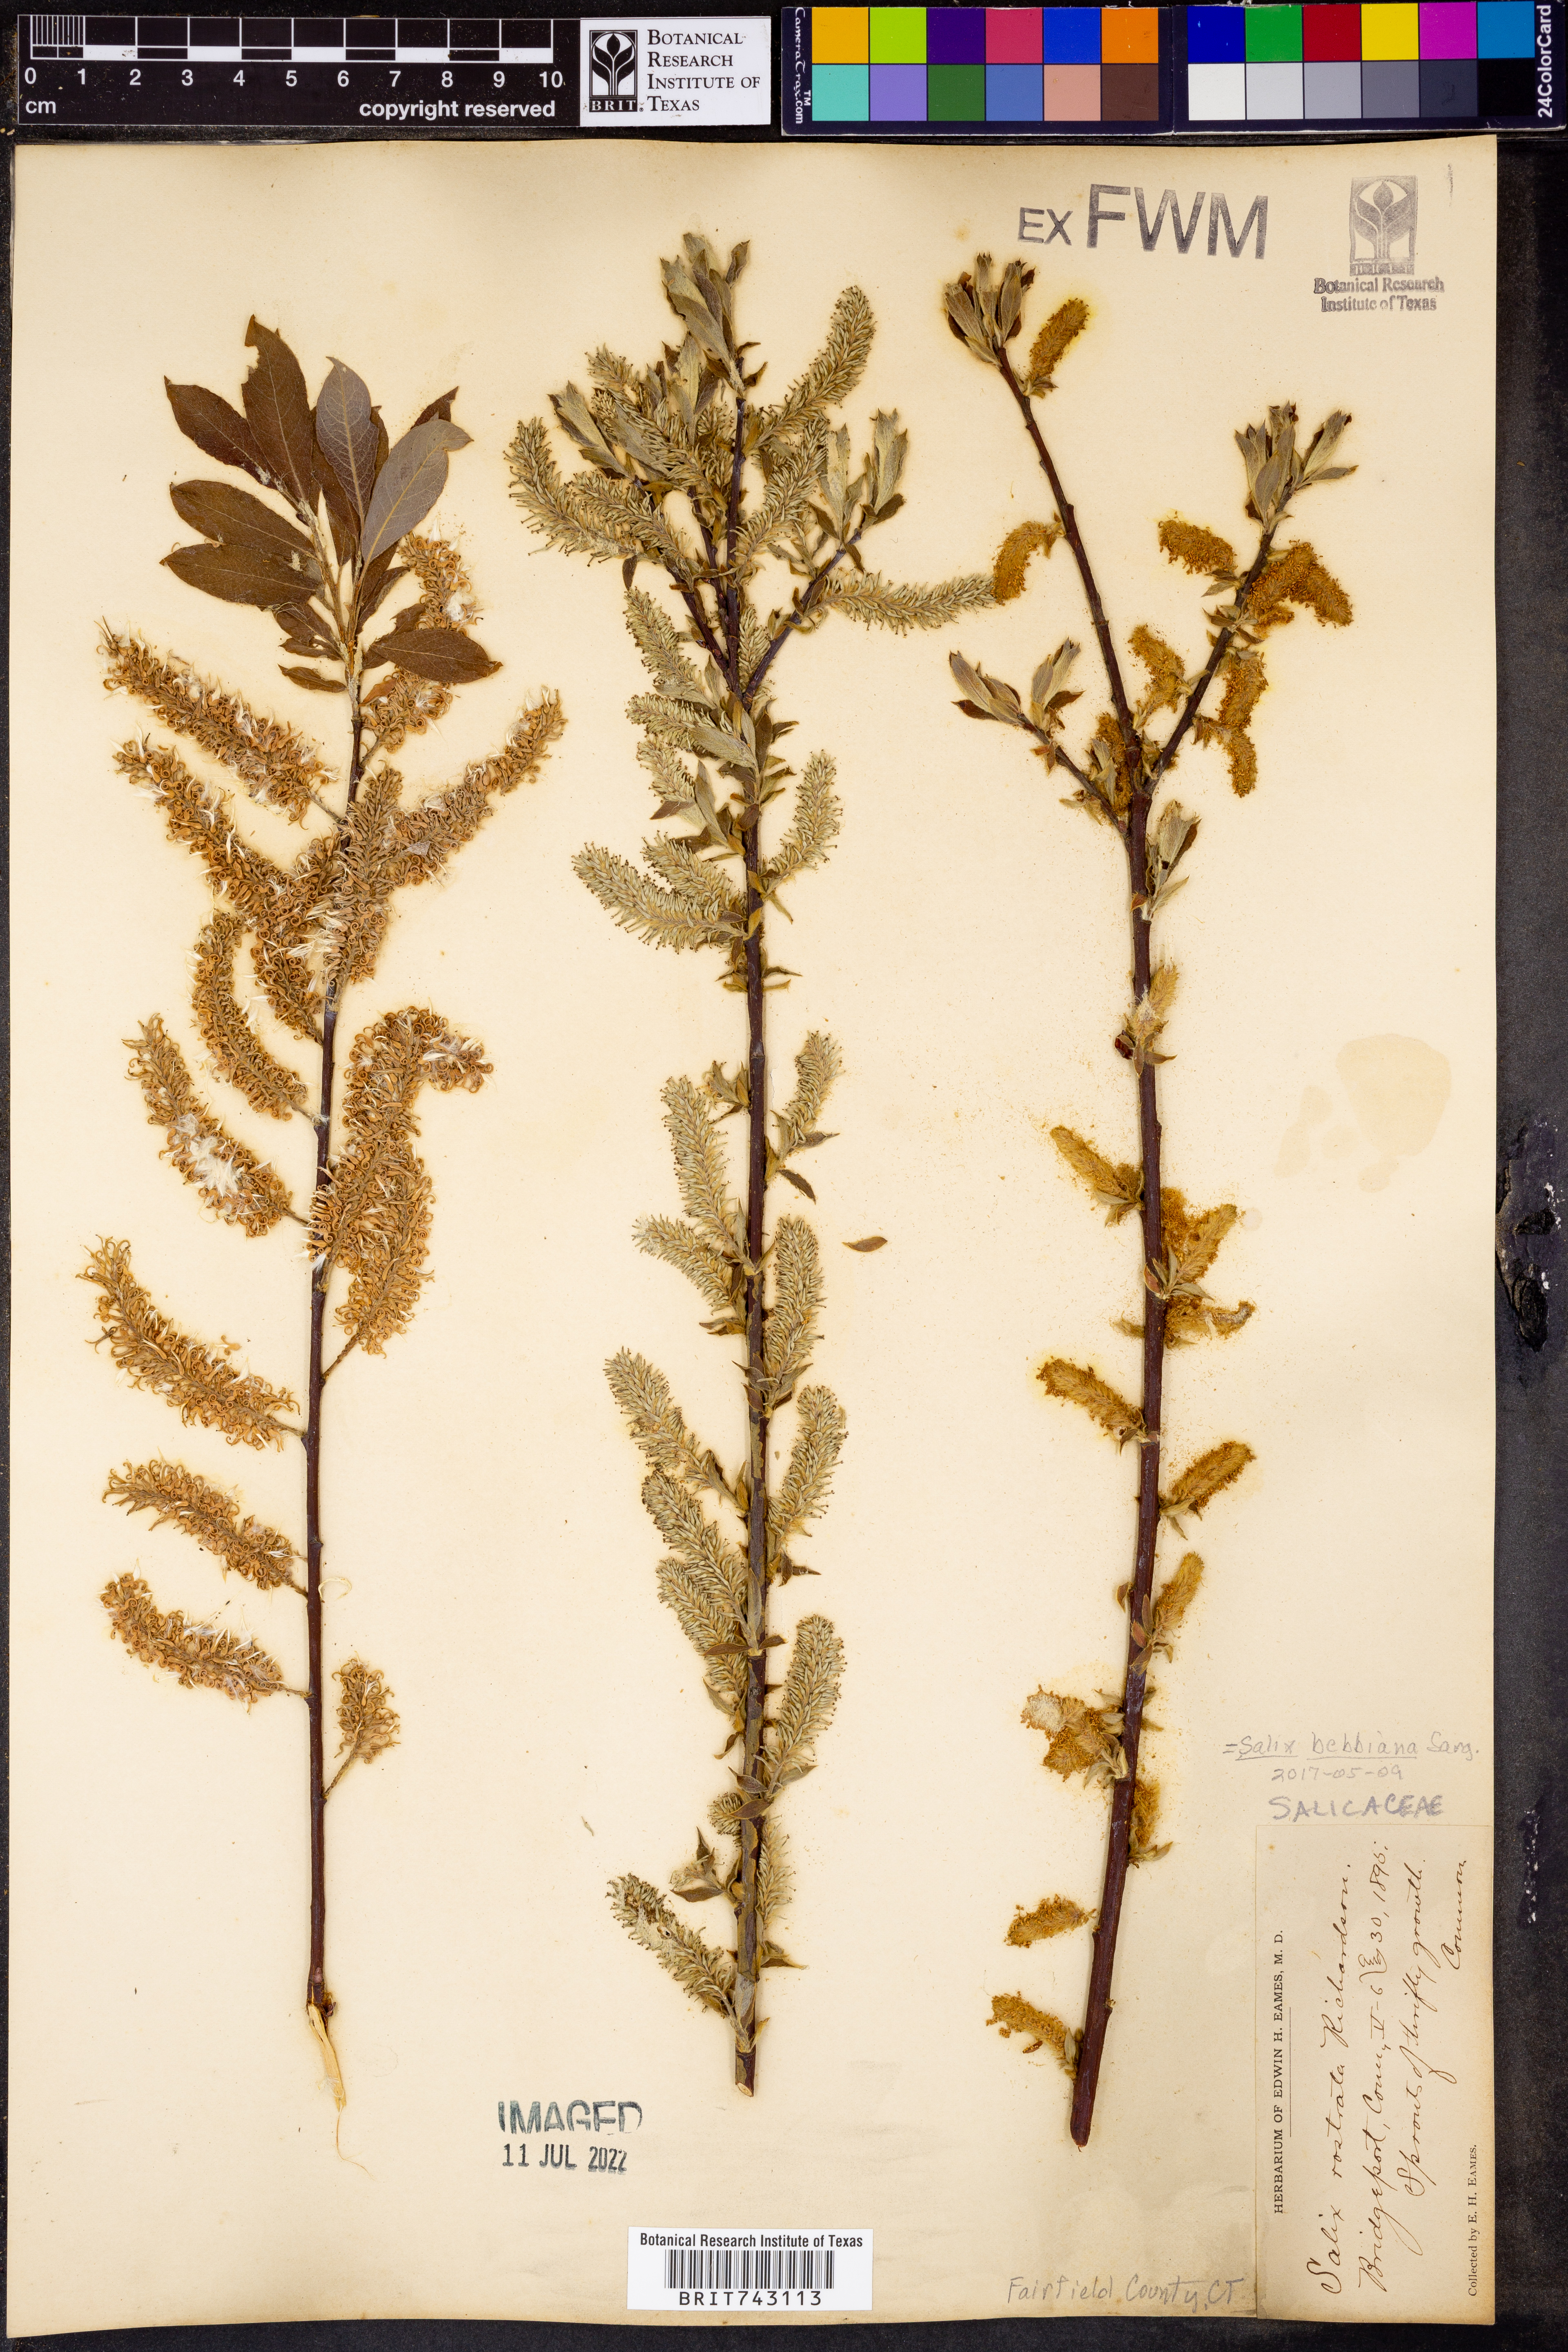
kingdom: Plantae
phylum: Tracheophyta
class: Magnoliopsida
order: Malpighiales
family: Salicaceae
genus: Salix
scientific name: Salix bebbiana
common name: Bebb's willow
